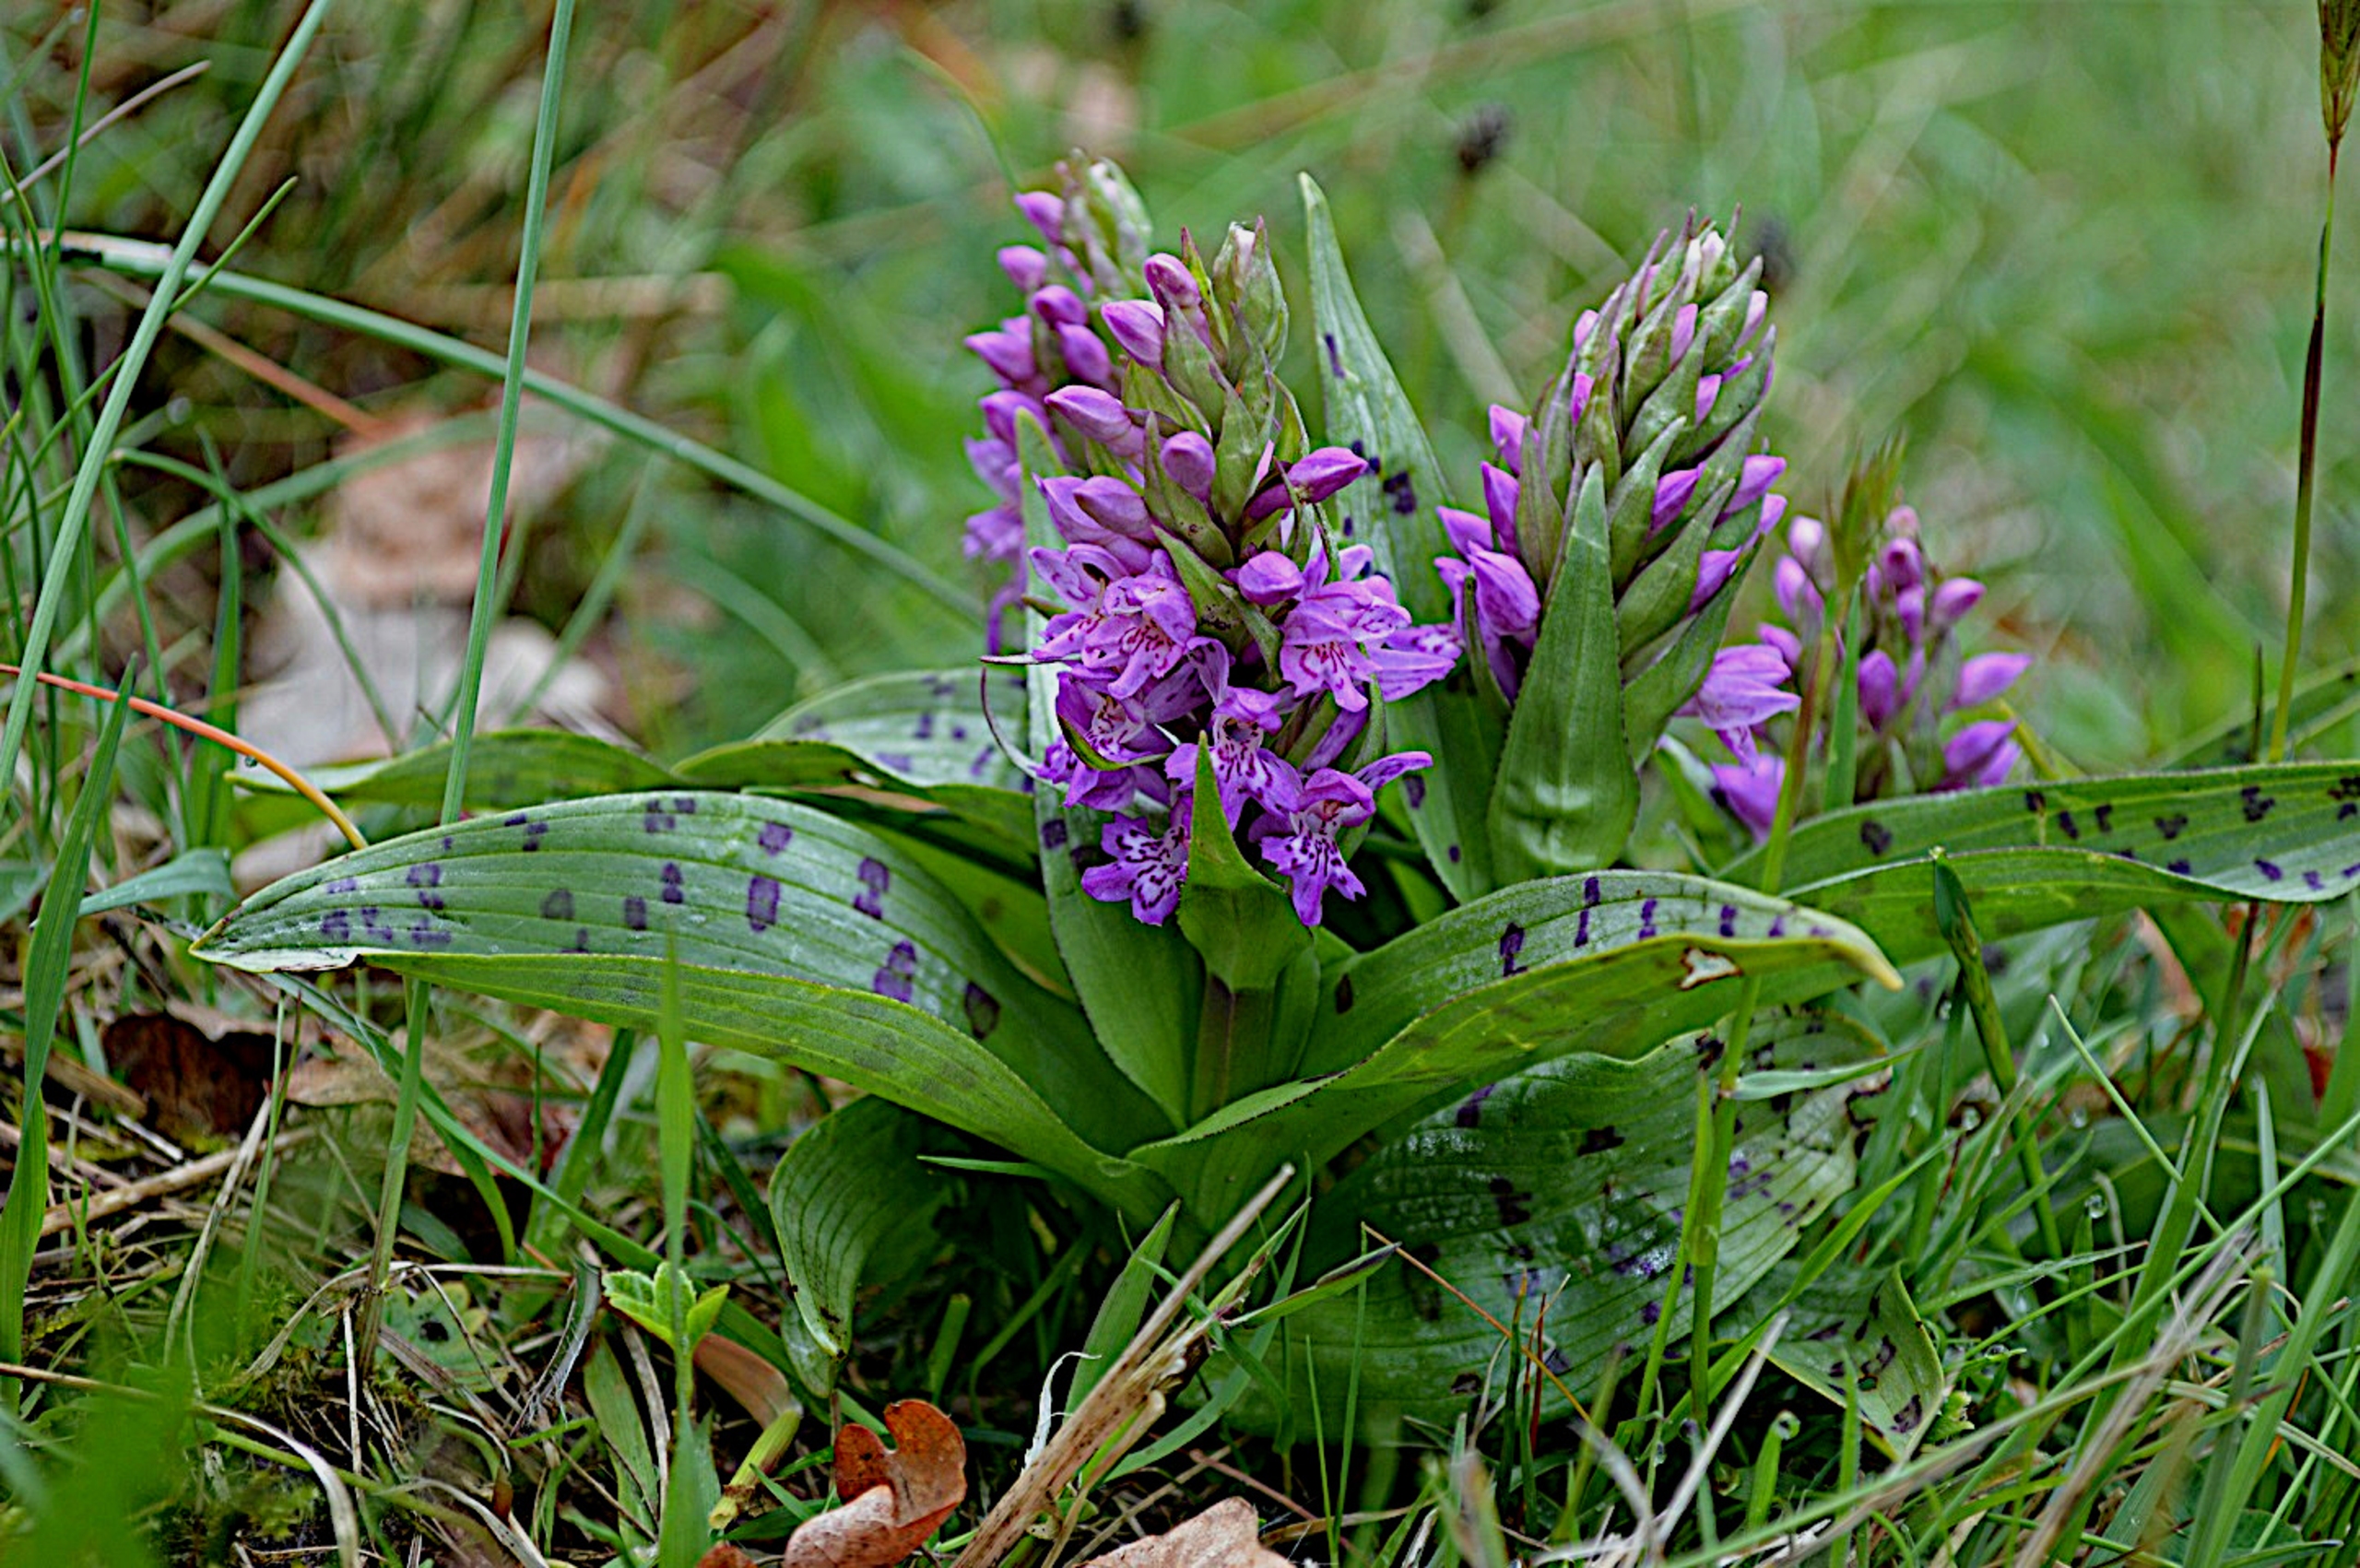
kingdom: Plantae
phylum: Tracheophyta
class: Liliopsida
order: Asparagales
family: Orchidaceae
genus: Dactylorhiza
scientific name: Dactylorhiza majalis
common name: Maj-gøgeurt
